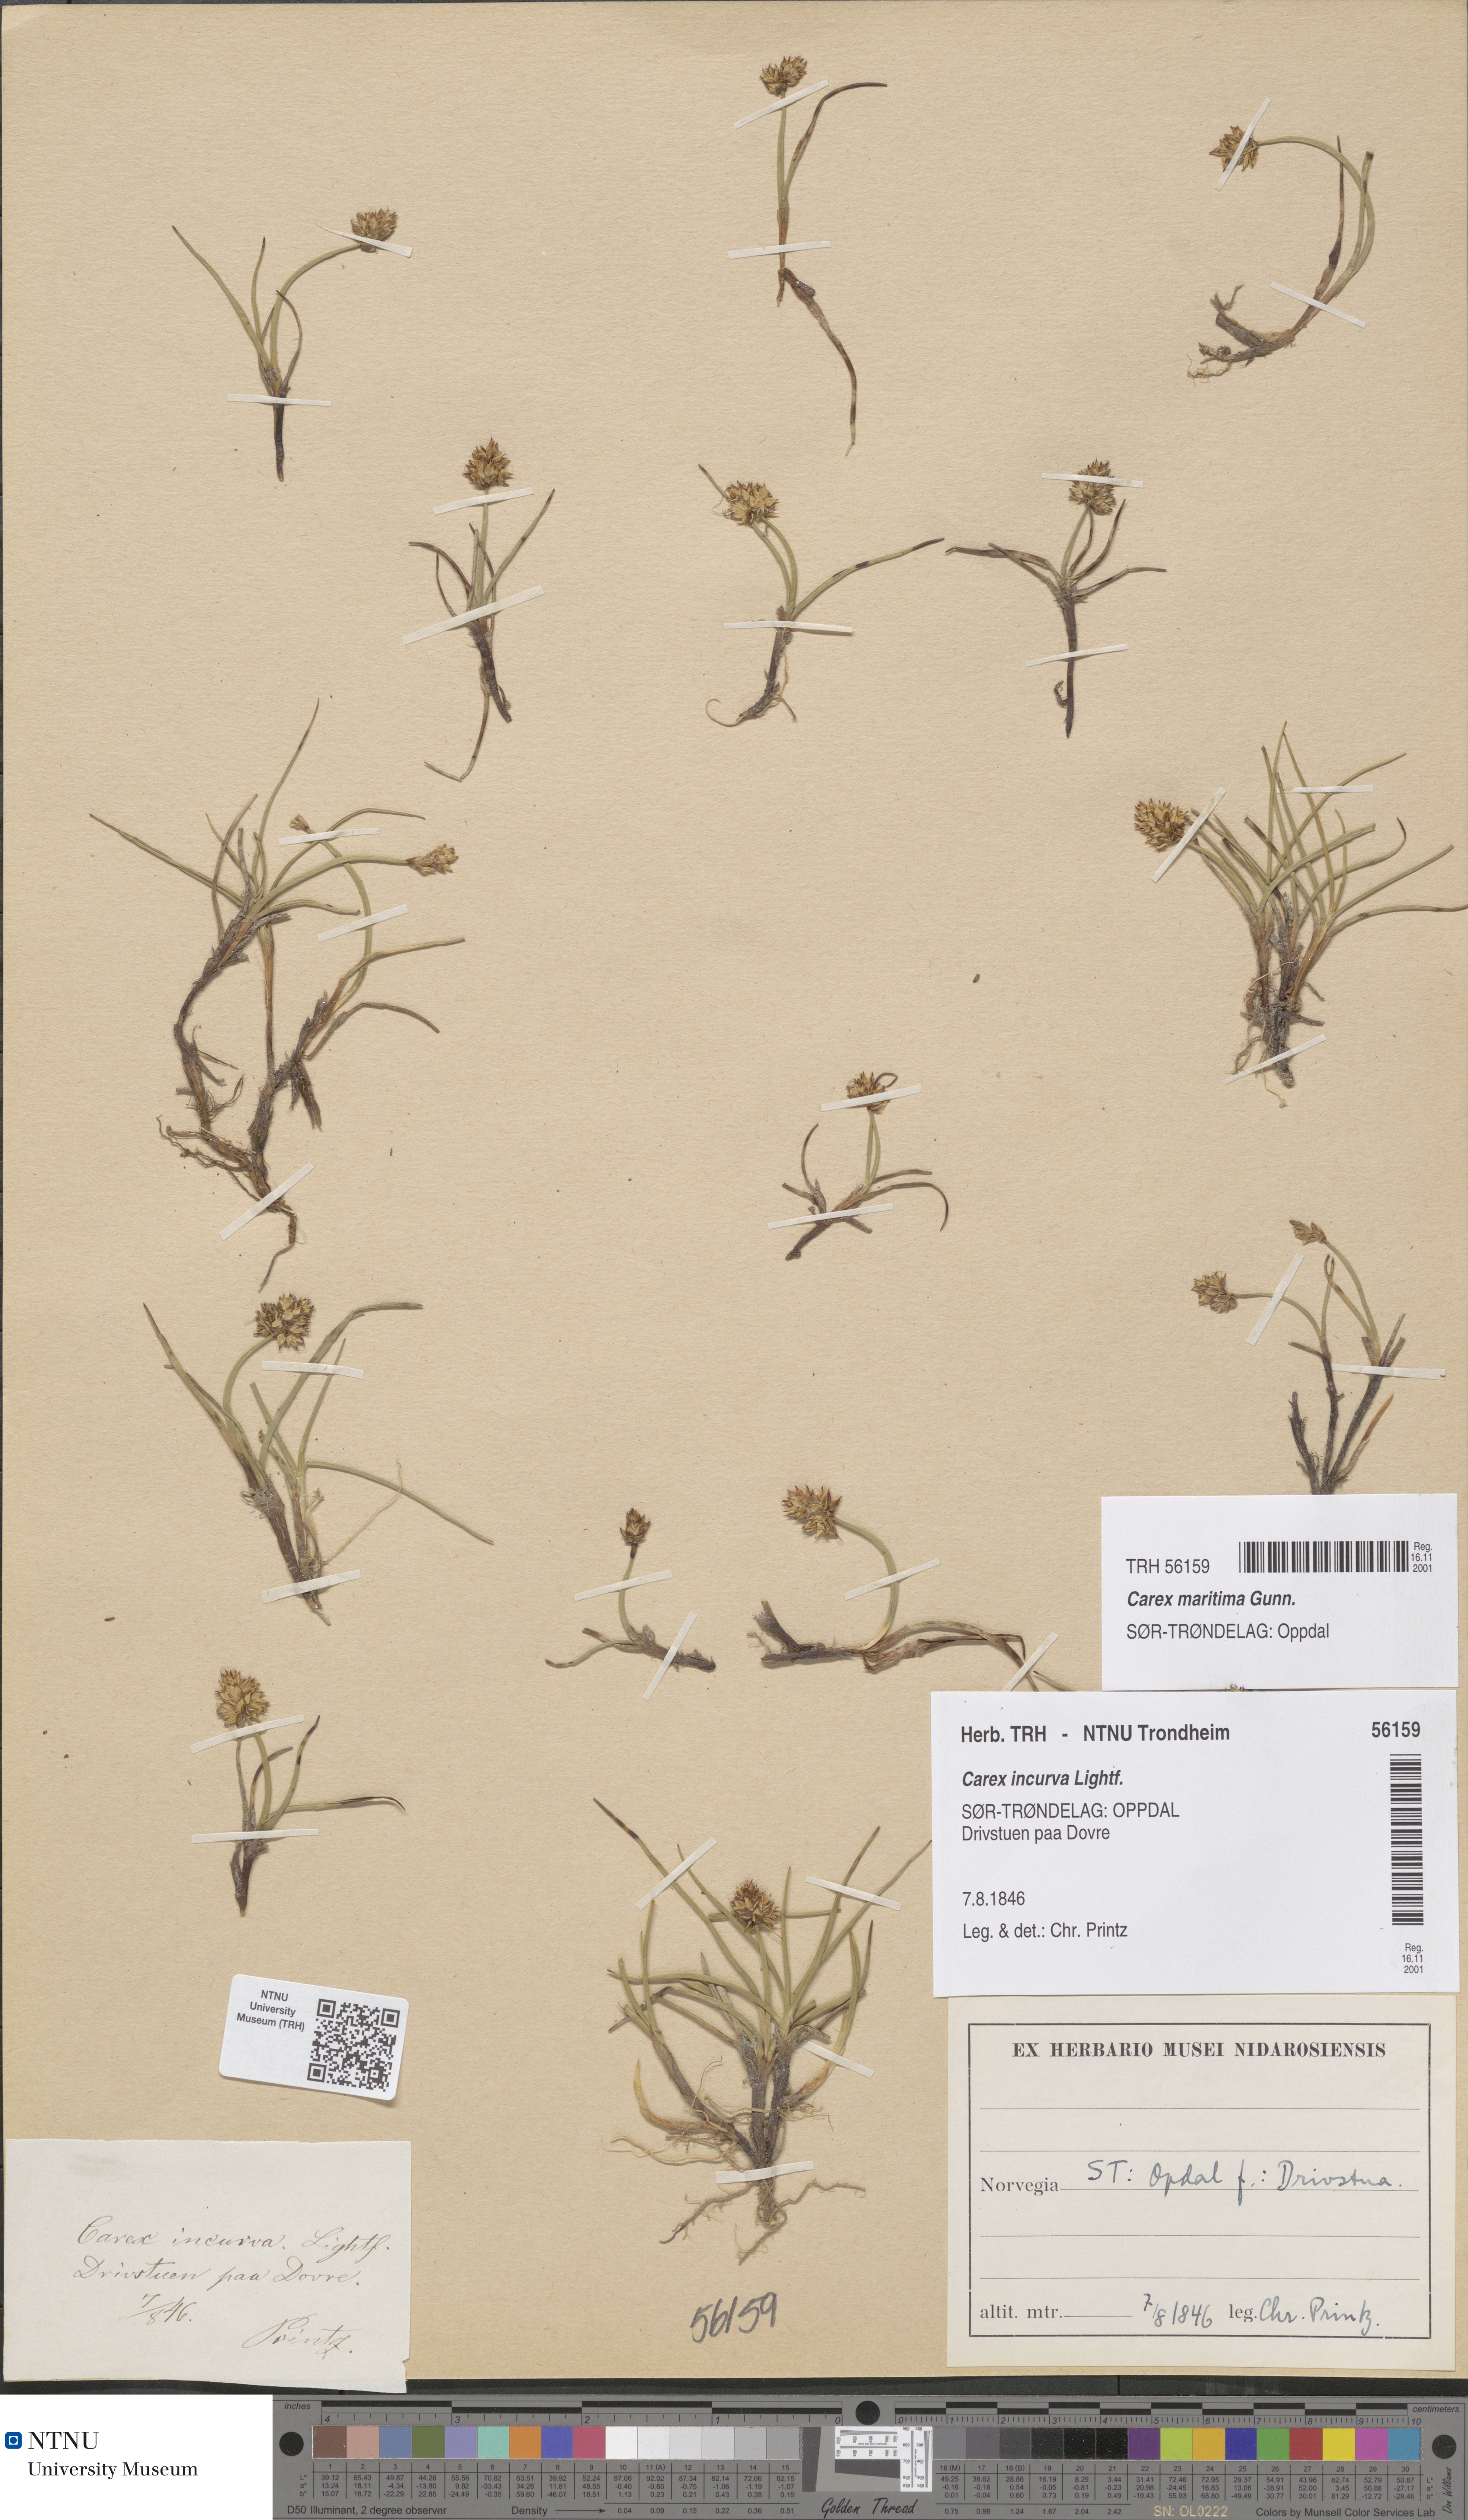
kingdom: Plantae
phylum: Tracheophyta
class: Liliopsida
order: Poales
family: Cyperaceae
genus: Carex
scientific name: Carex maritima
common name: Curved sedge
